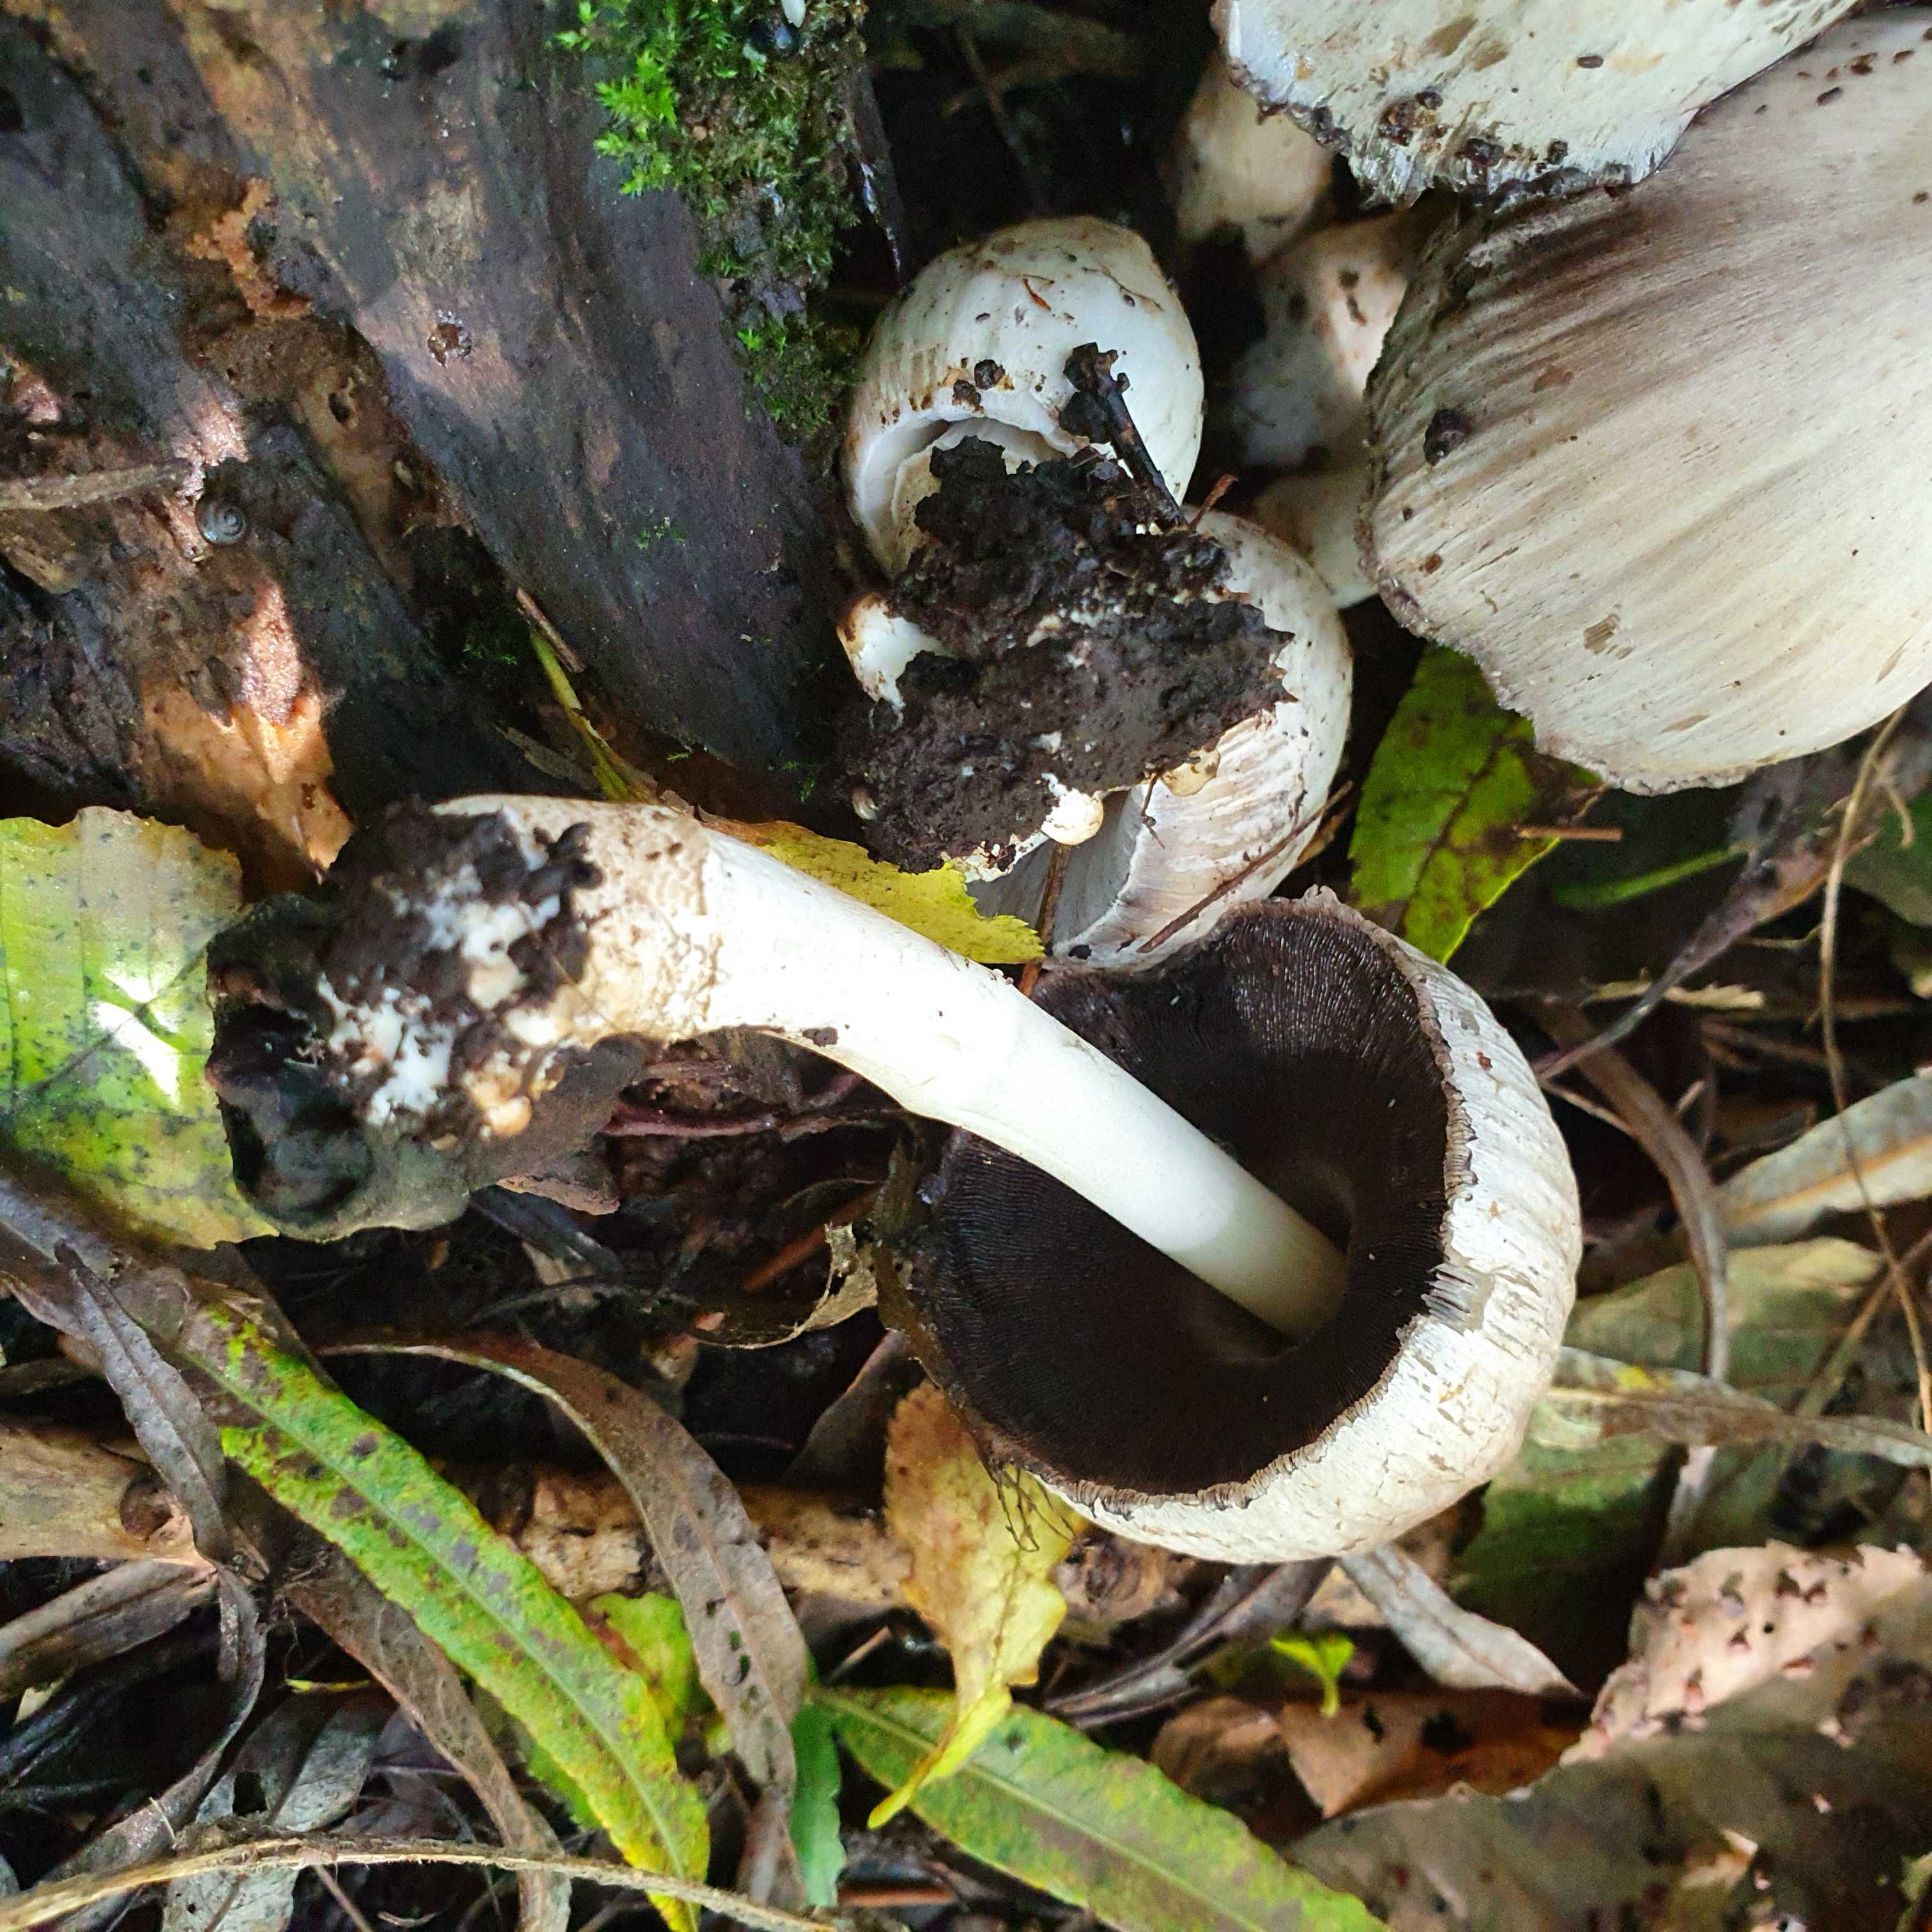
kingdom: Fungi
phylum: Basidiomycota
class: Agaricomycetes
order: Agaricales
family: Psathyrellaceae
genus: Coprinopsis
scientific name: Coprinopsis atramentaria
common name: almindelig blækhat
